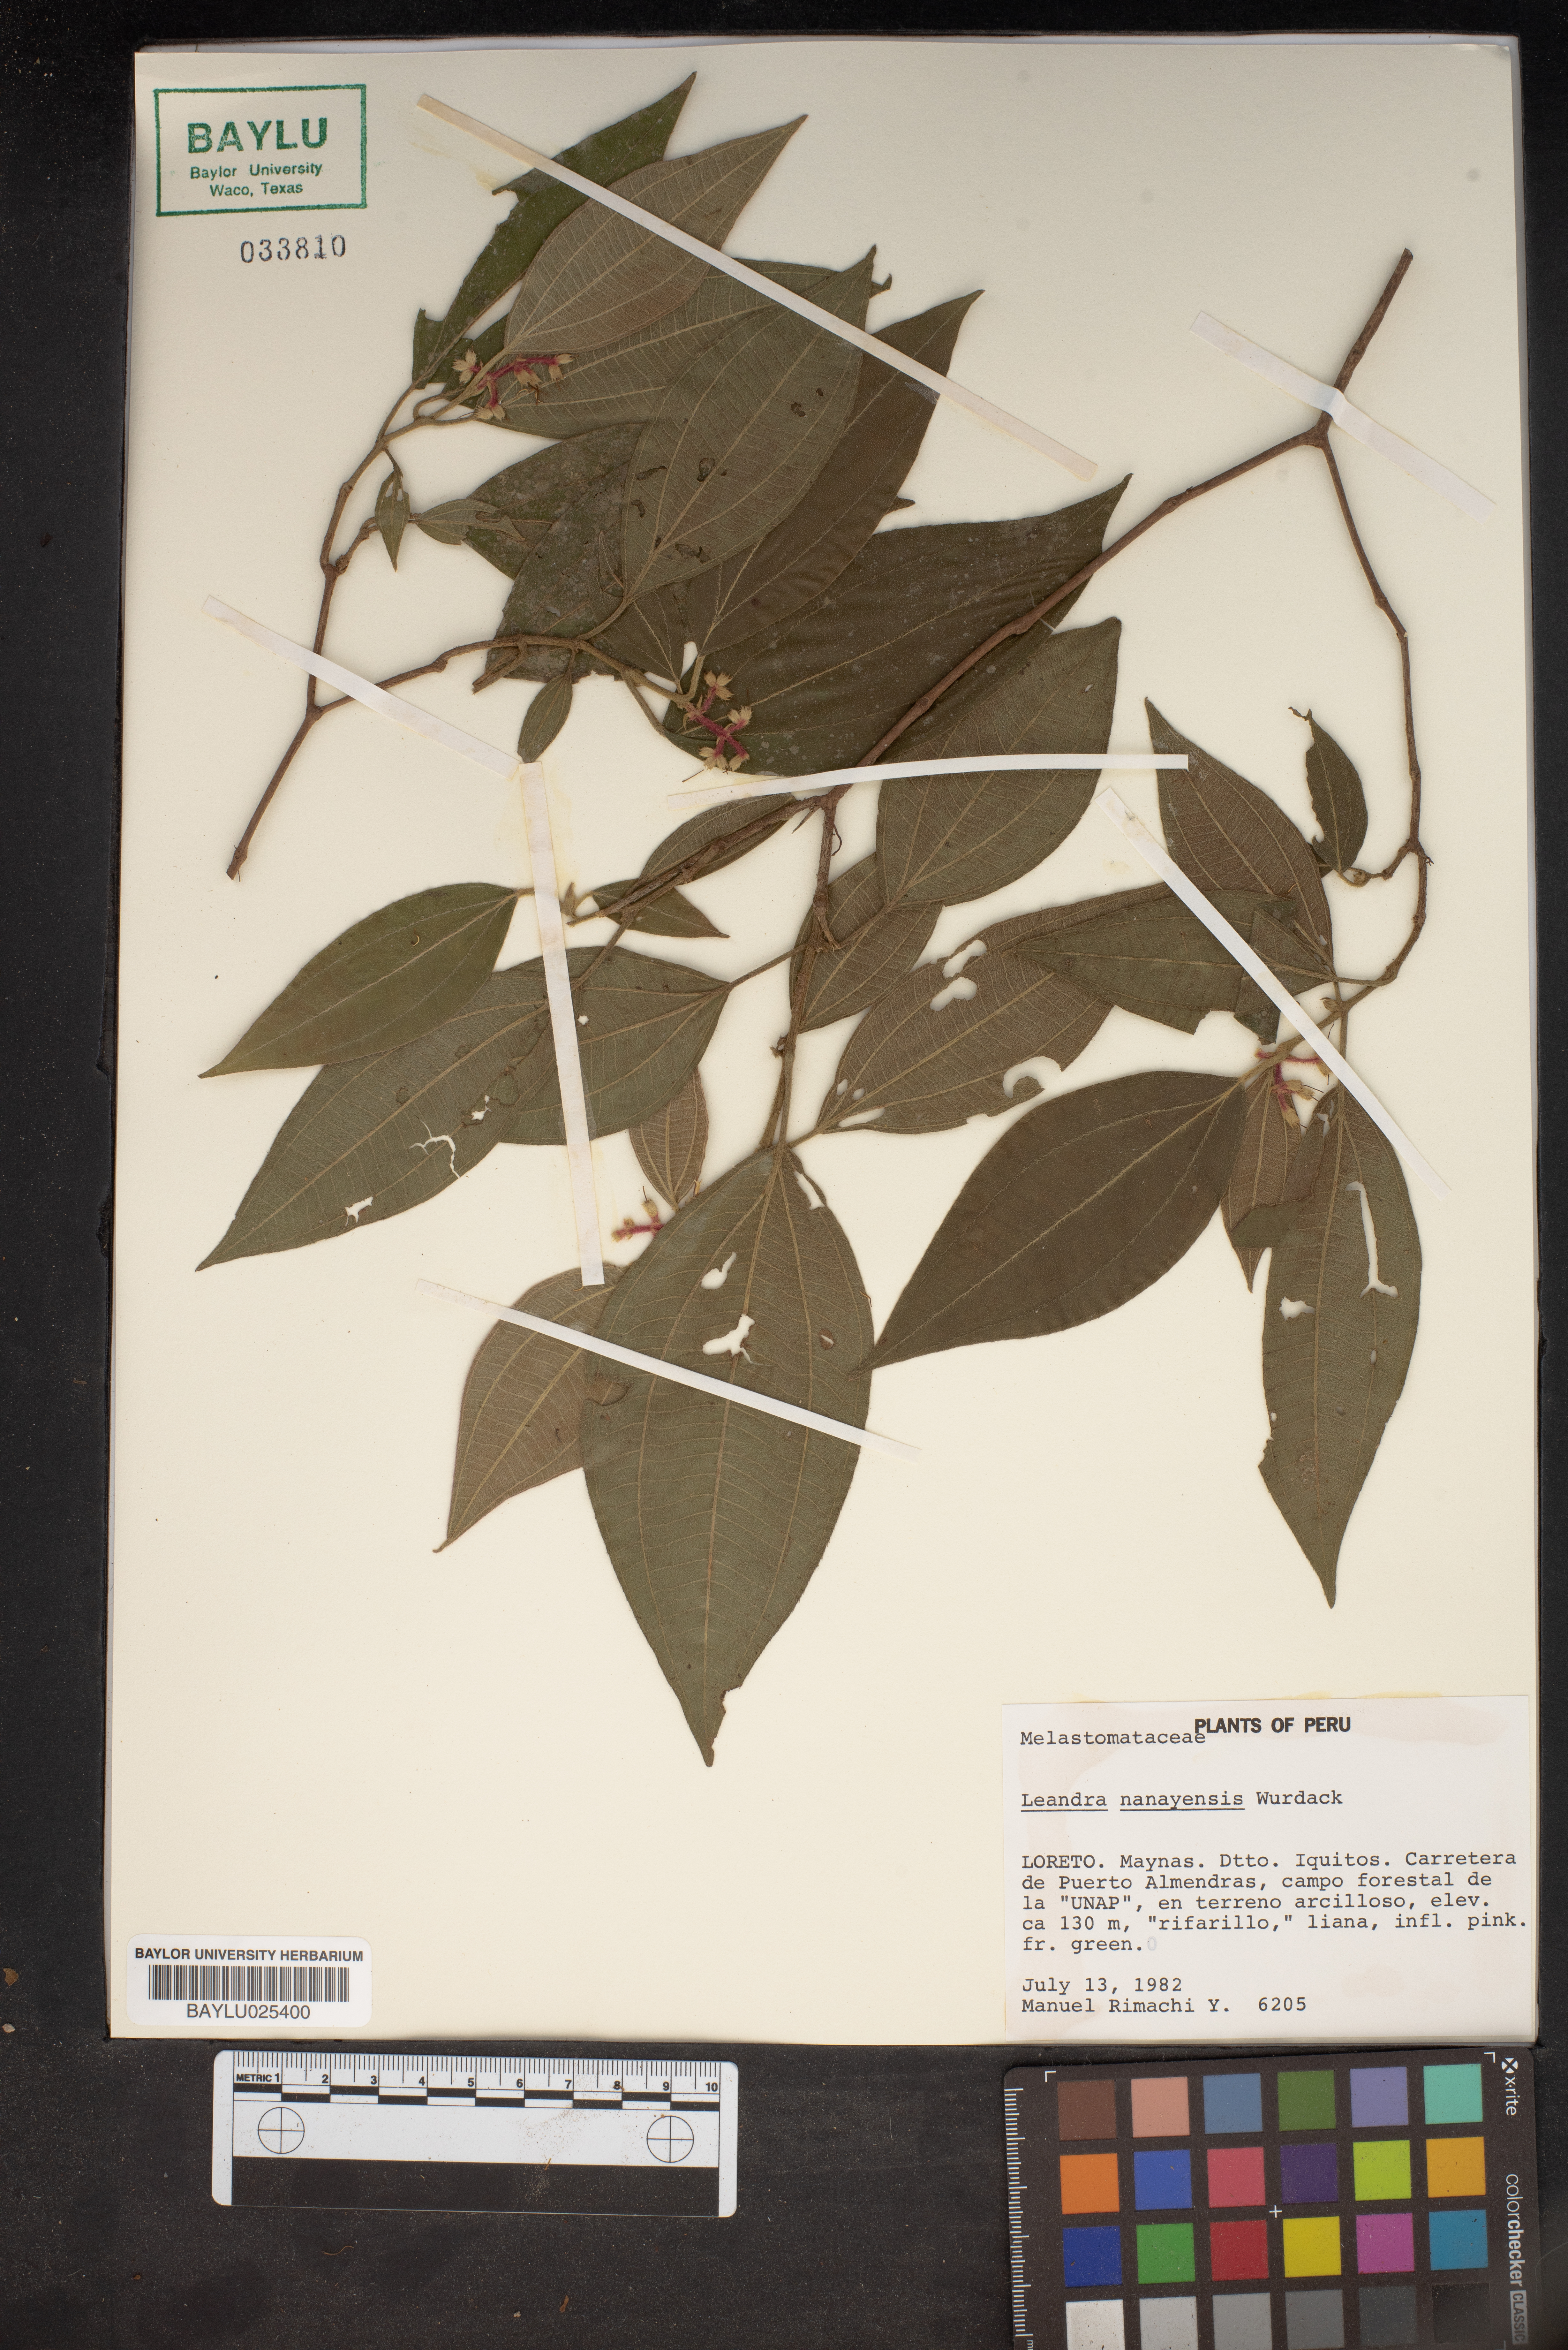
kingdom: Plantae
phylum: Tracheophyta
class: Magnoliopsida
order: Myrtales
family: Melastomataceae
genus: Miconia
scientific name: Miconia nanayensis
